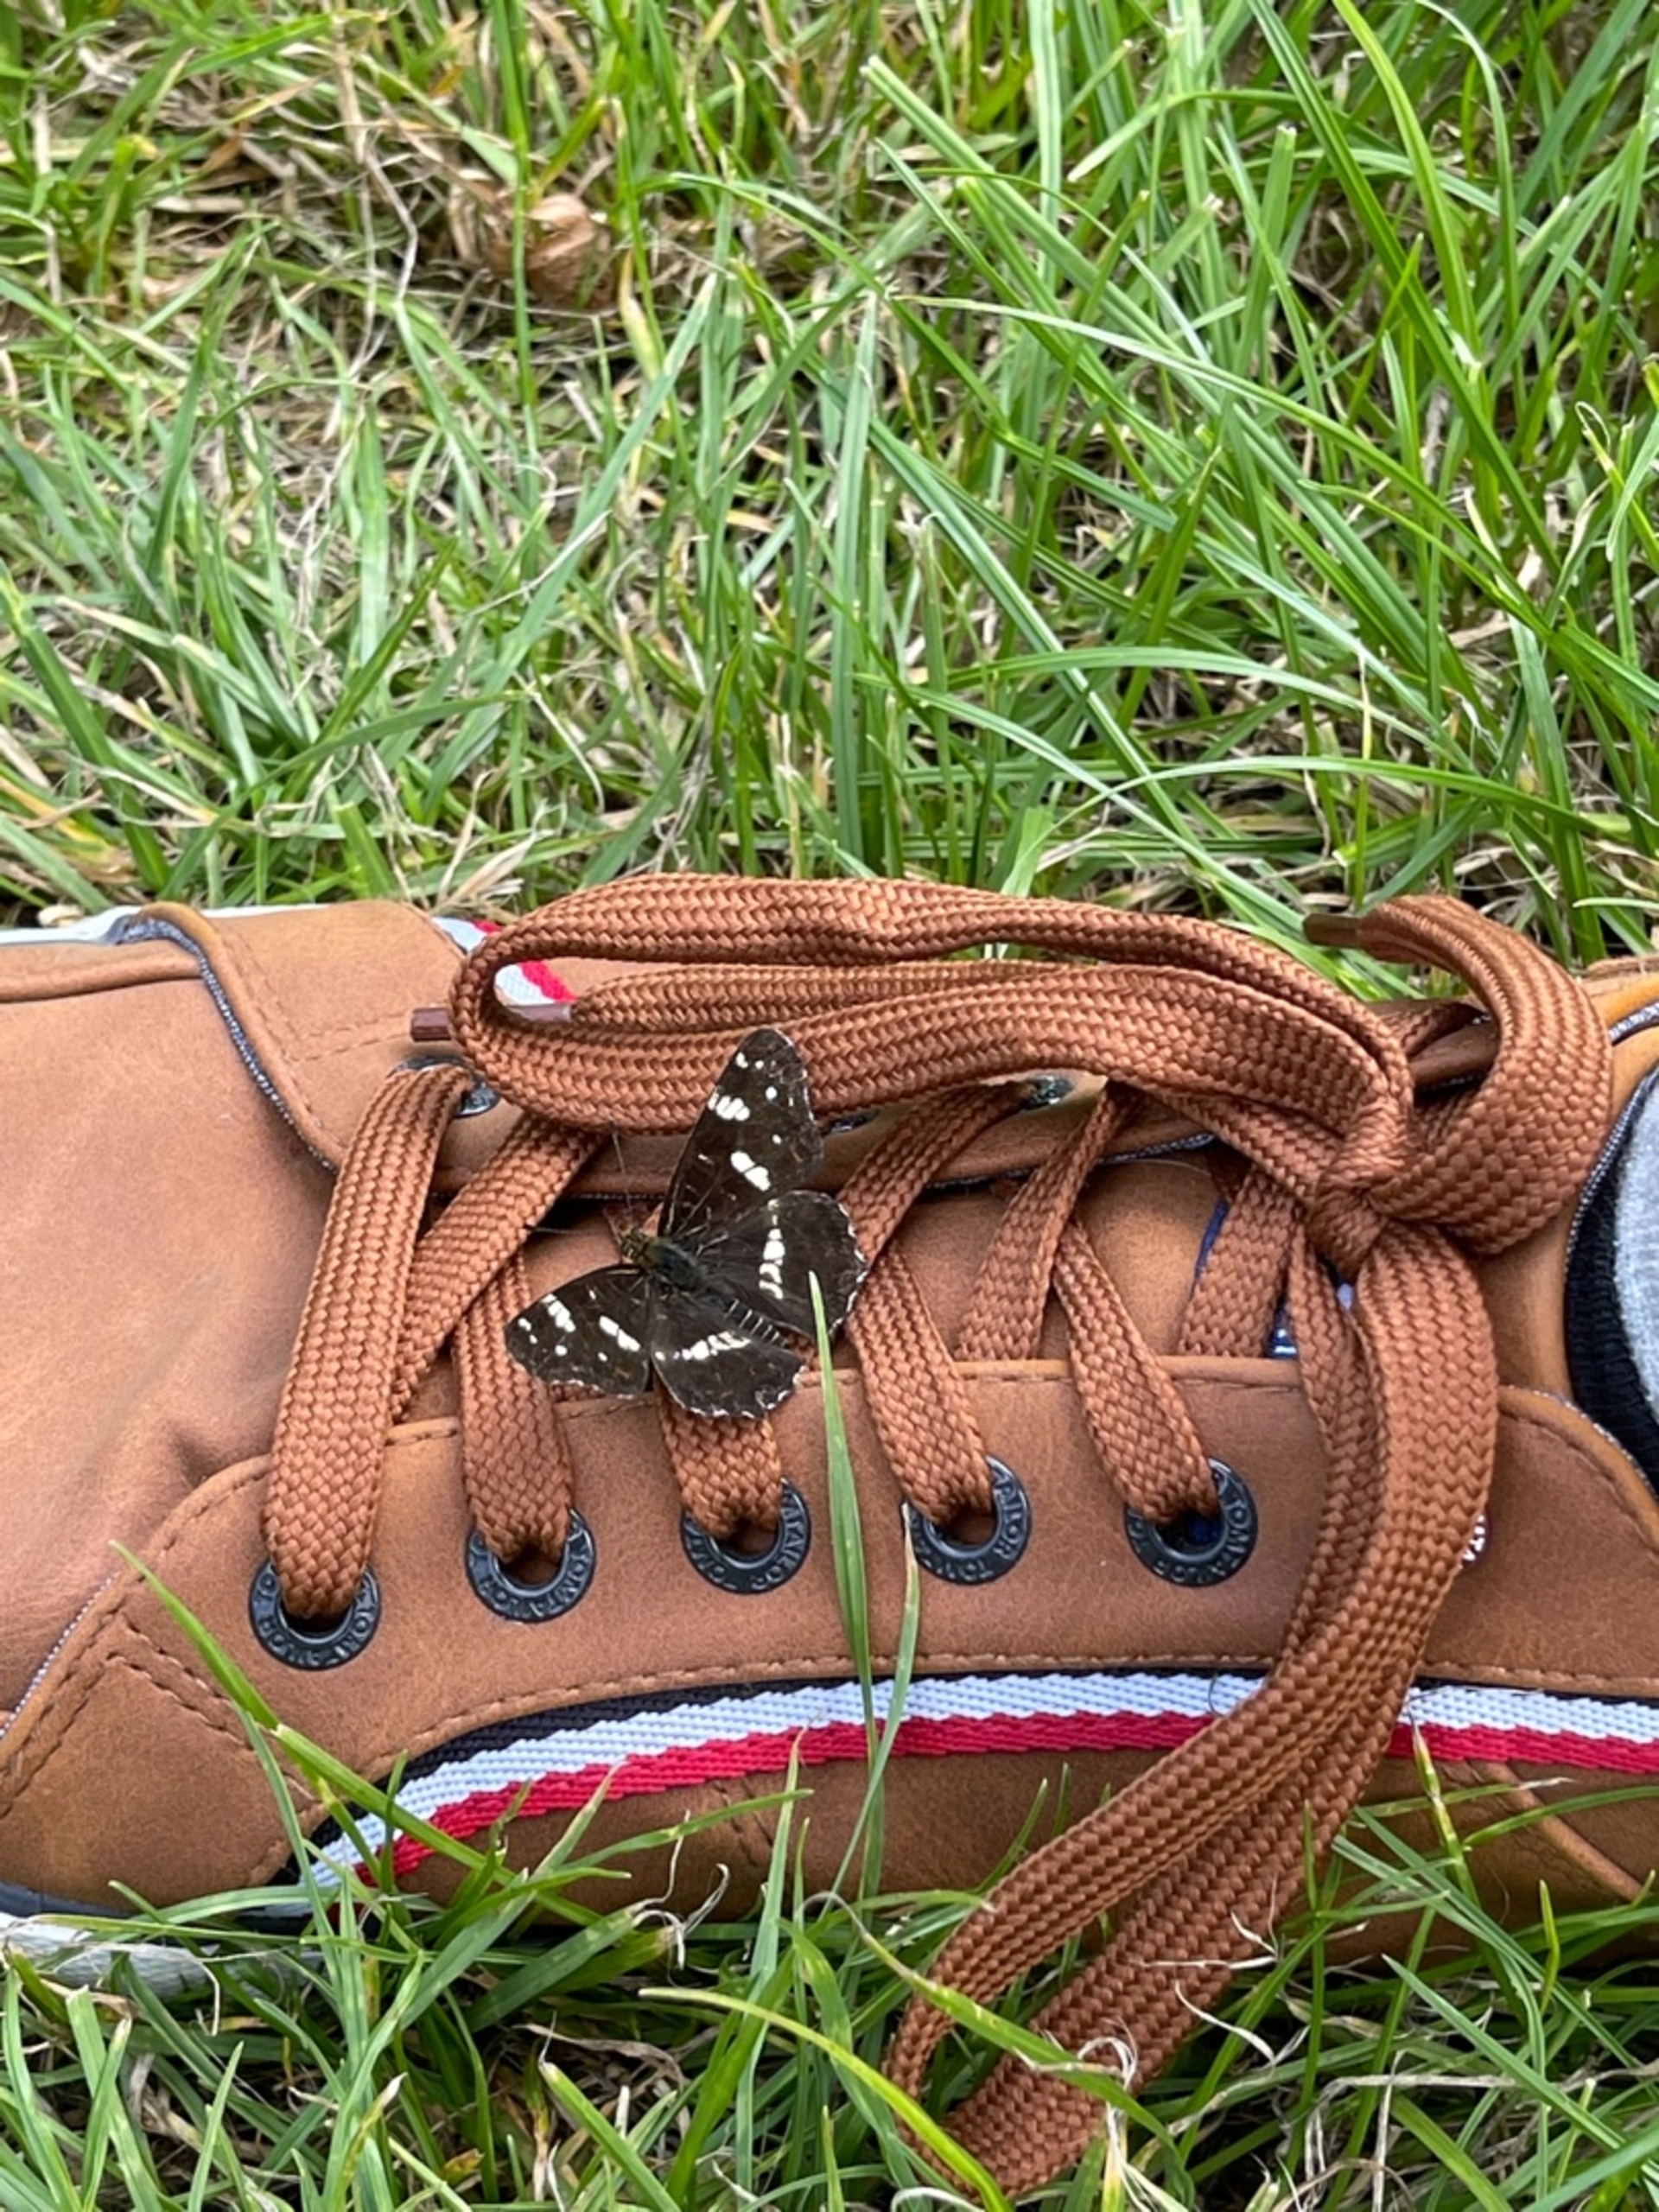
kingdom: Animalia
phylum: Arthropoda
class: Insecta
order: Lepidoptera
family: Nymphalidae
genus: Araschnia
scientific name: Araschnia levana
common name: Nældesommerfugl
